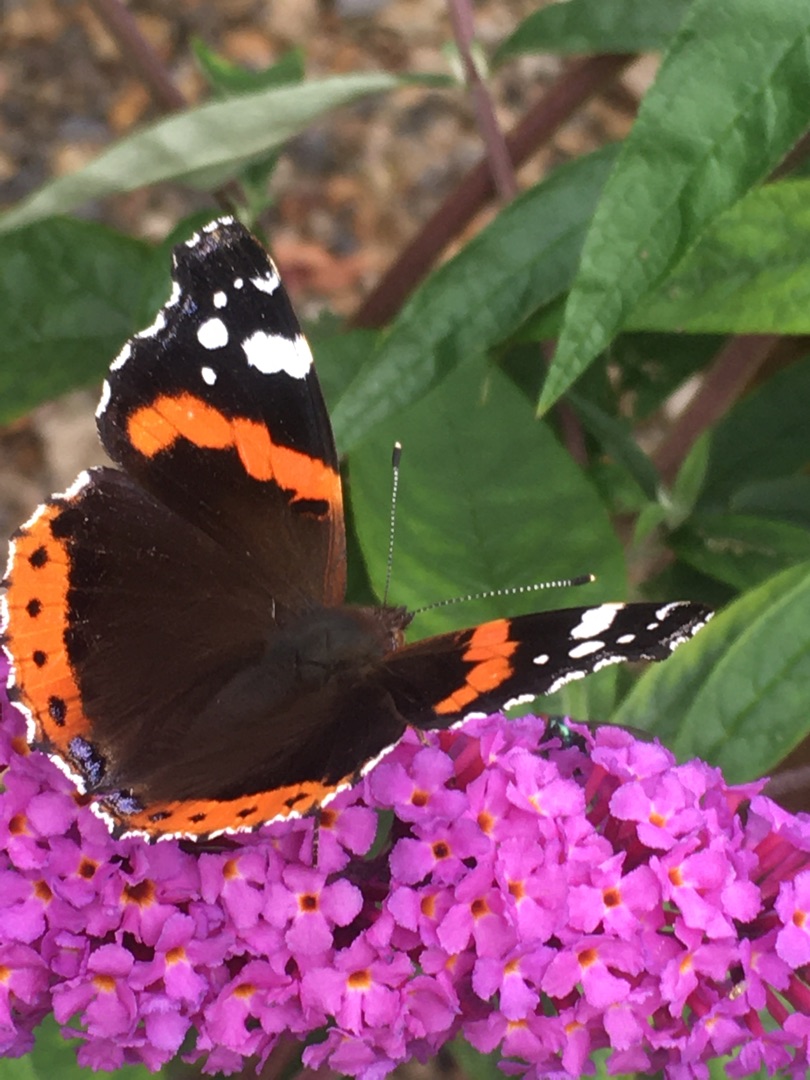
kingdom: Animalia
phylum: Arthropoda
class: Insecta
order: Lepidoptera
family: Nymphalidae
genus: Vanessa
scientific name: Vanessa atalanta
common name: Admiral
